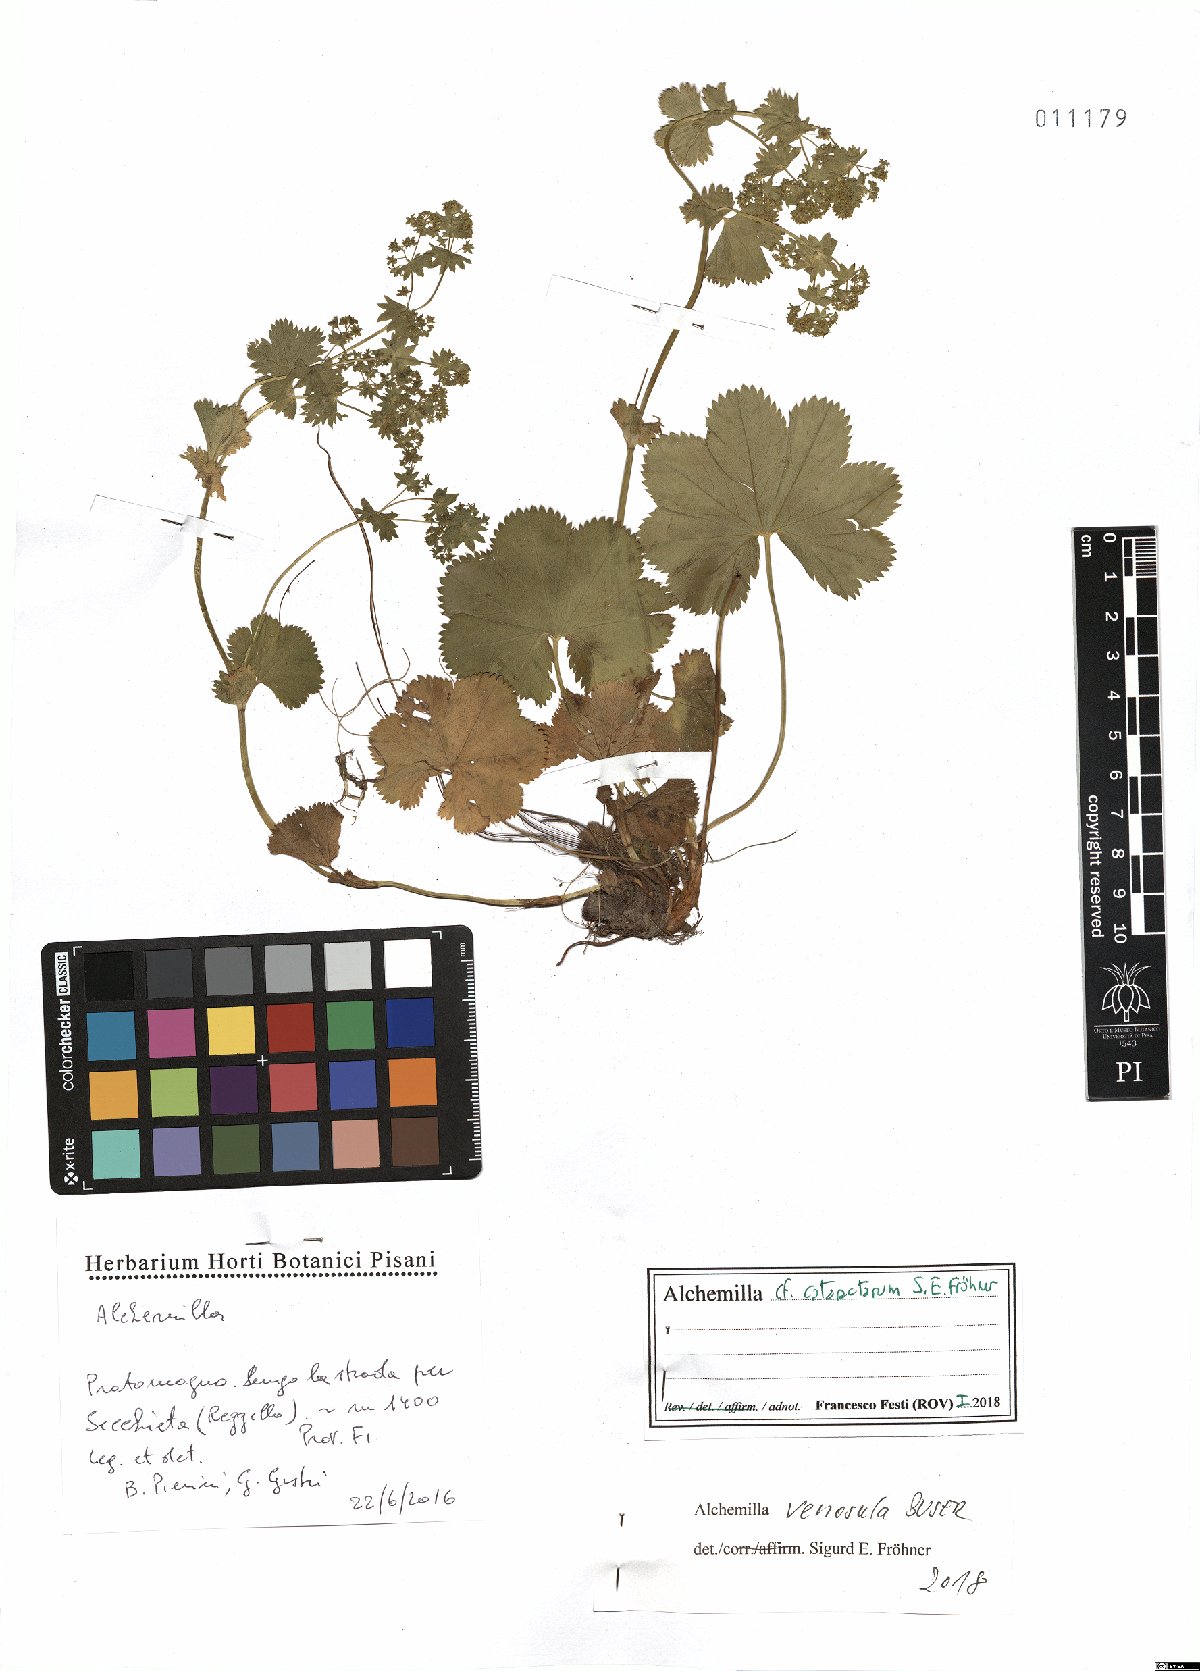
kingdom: Plantae
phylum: Tracheophyta
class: Magnoliopsida
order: Rosales
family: Rosaceae
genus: Alchemilla
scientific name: Alchemilla venosula
